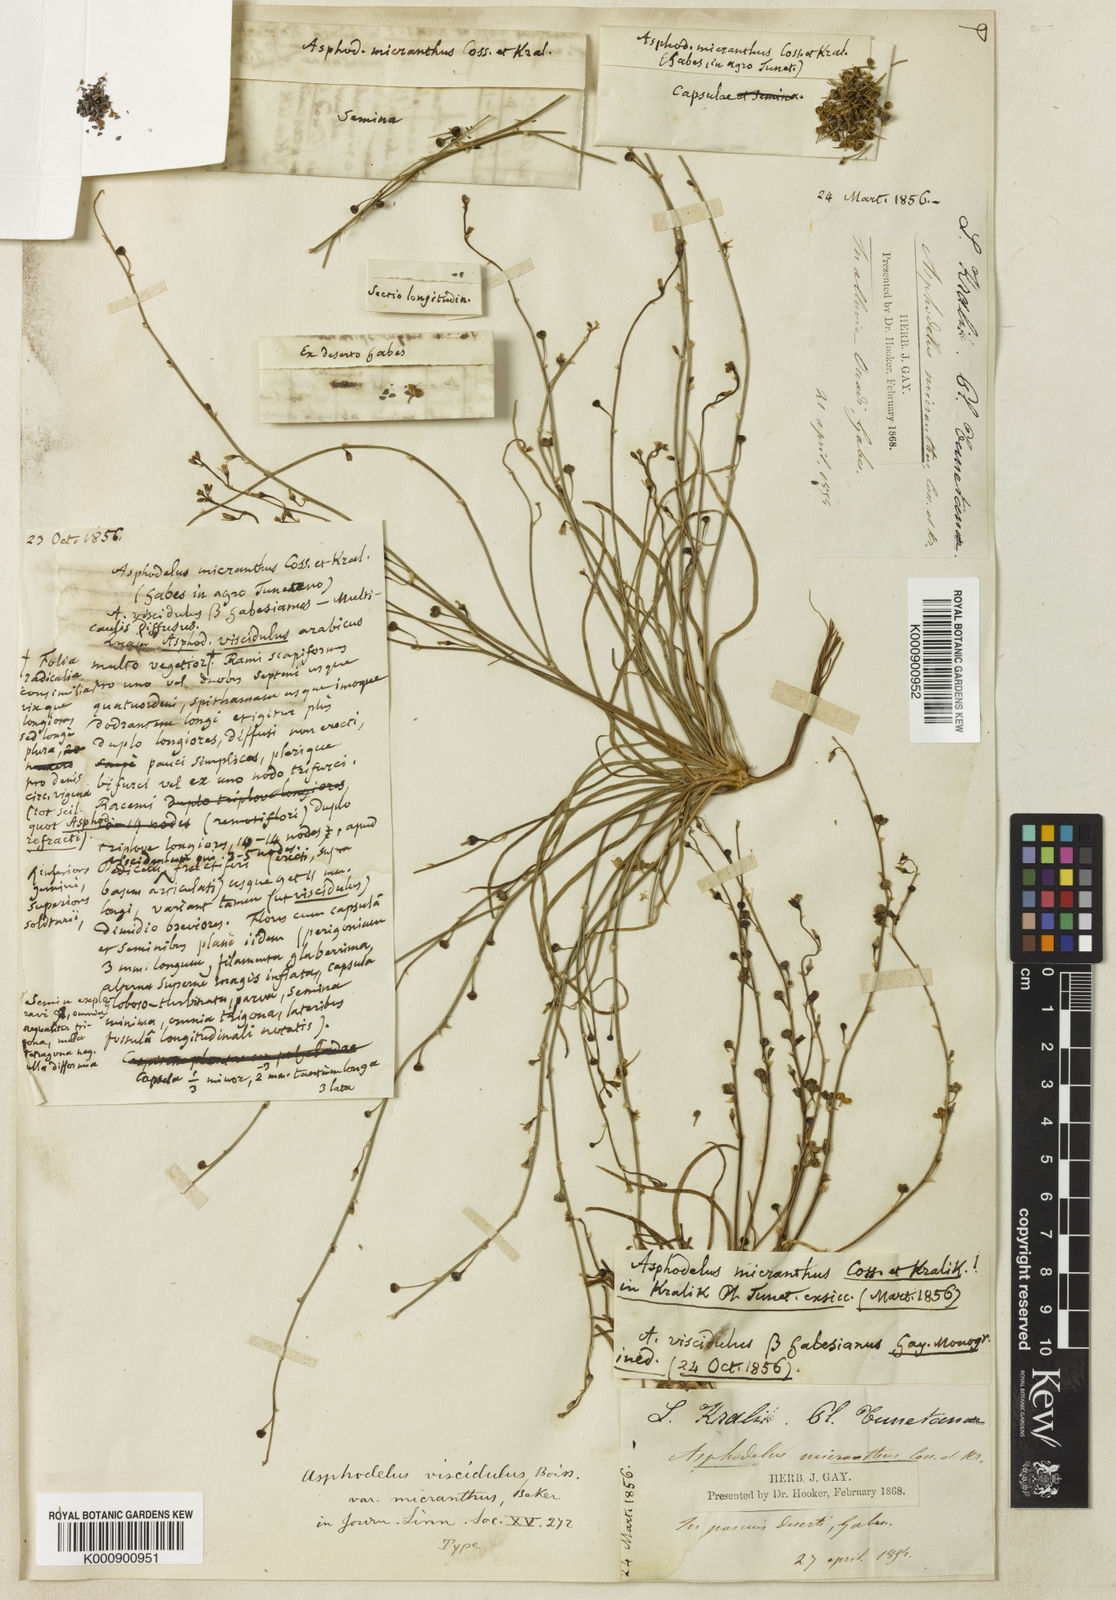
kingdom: Plantae
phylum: Tracheophyta
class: Liliopsida
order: Asparagales
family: Asphodelaceae
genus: Asphodelus
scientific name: Asphodelus viscidulus
